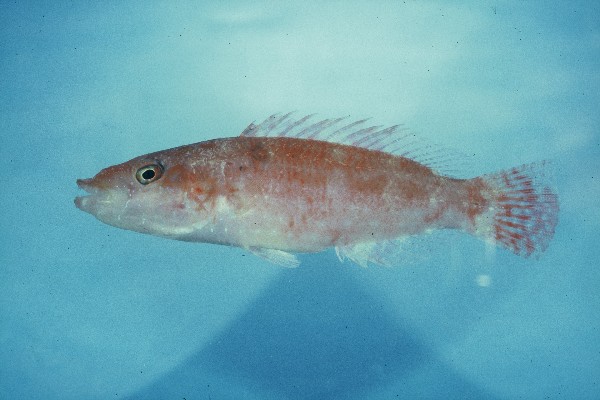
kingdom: Animalia
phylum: Chordata
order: Perciformes
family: Labridae
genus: Oxycheilinus
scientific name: Oxycheilinus orientalis
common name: Oriental maori wrasse
